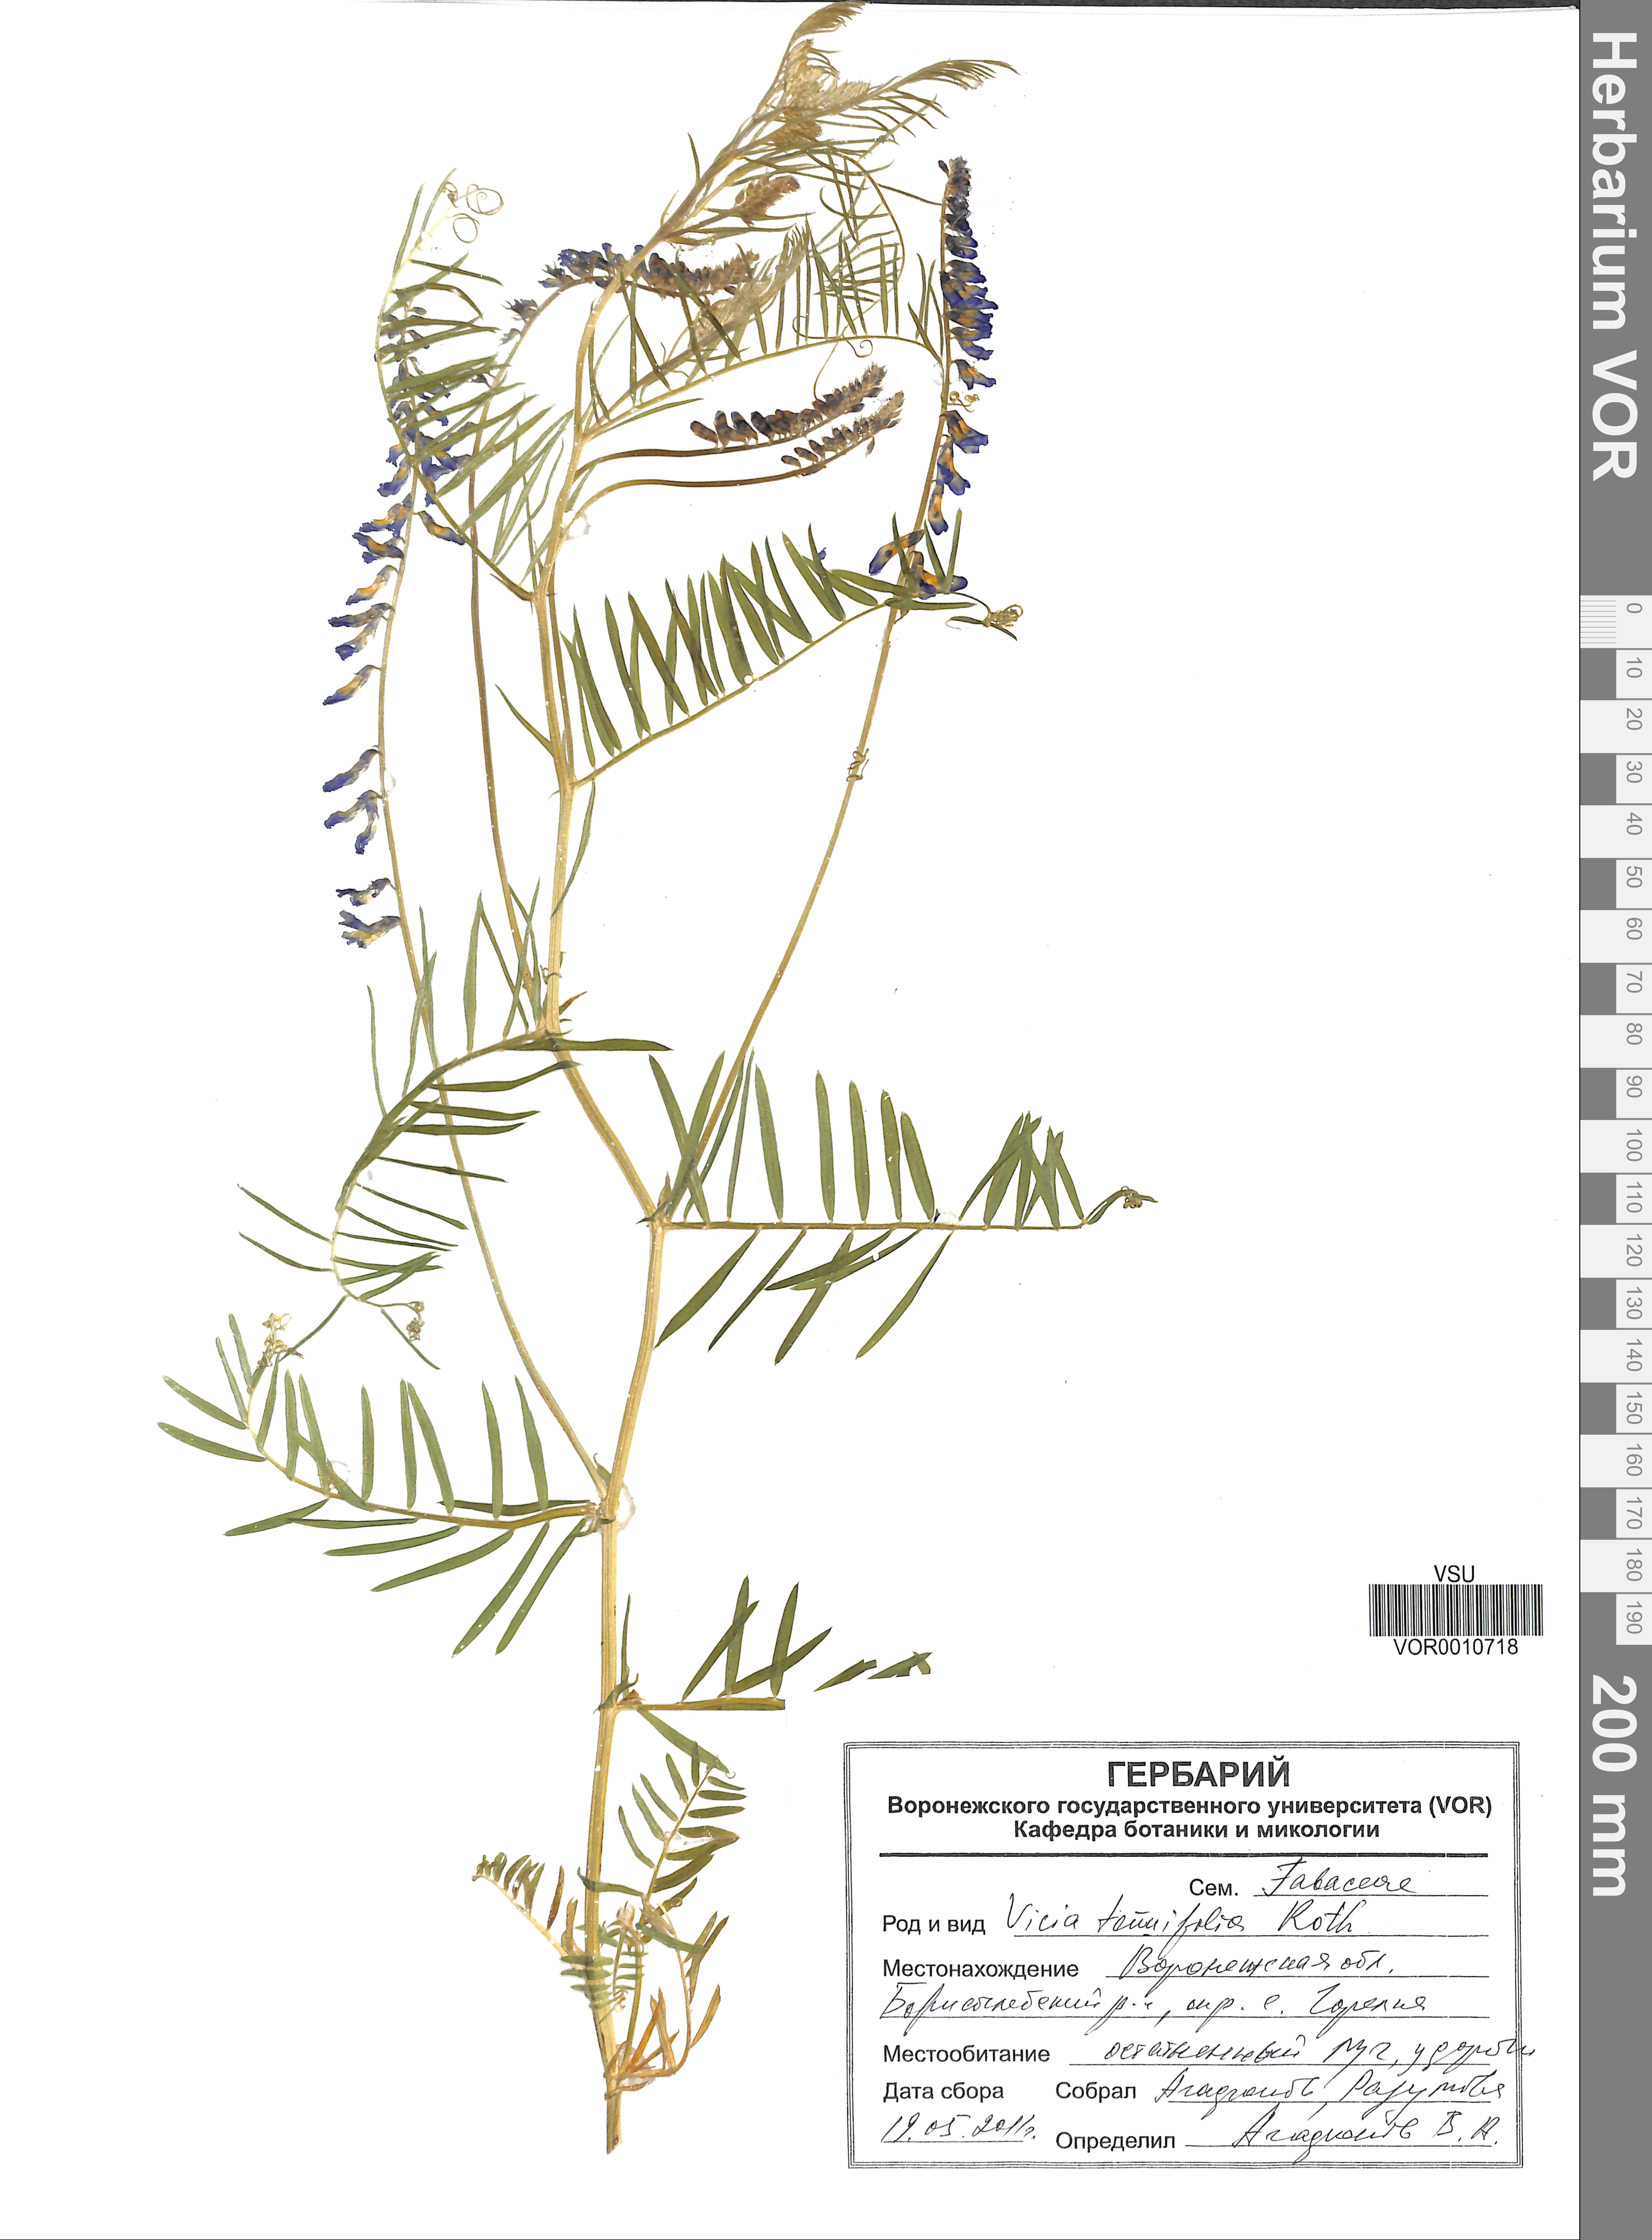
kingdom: Plantae
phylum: Tracheophyta
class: Magnoliopsida
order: Fabales
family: Fabaceae
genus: Vicia
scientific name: Vicia tenuifolia
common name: Fine-leaved vetch
